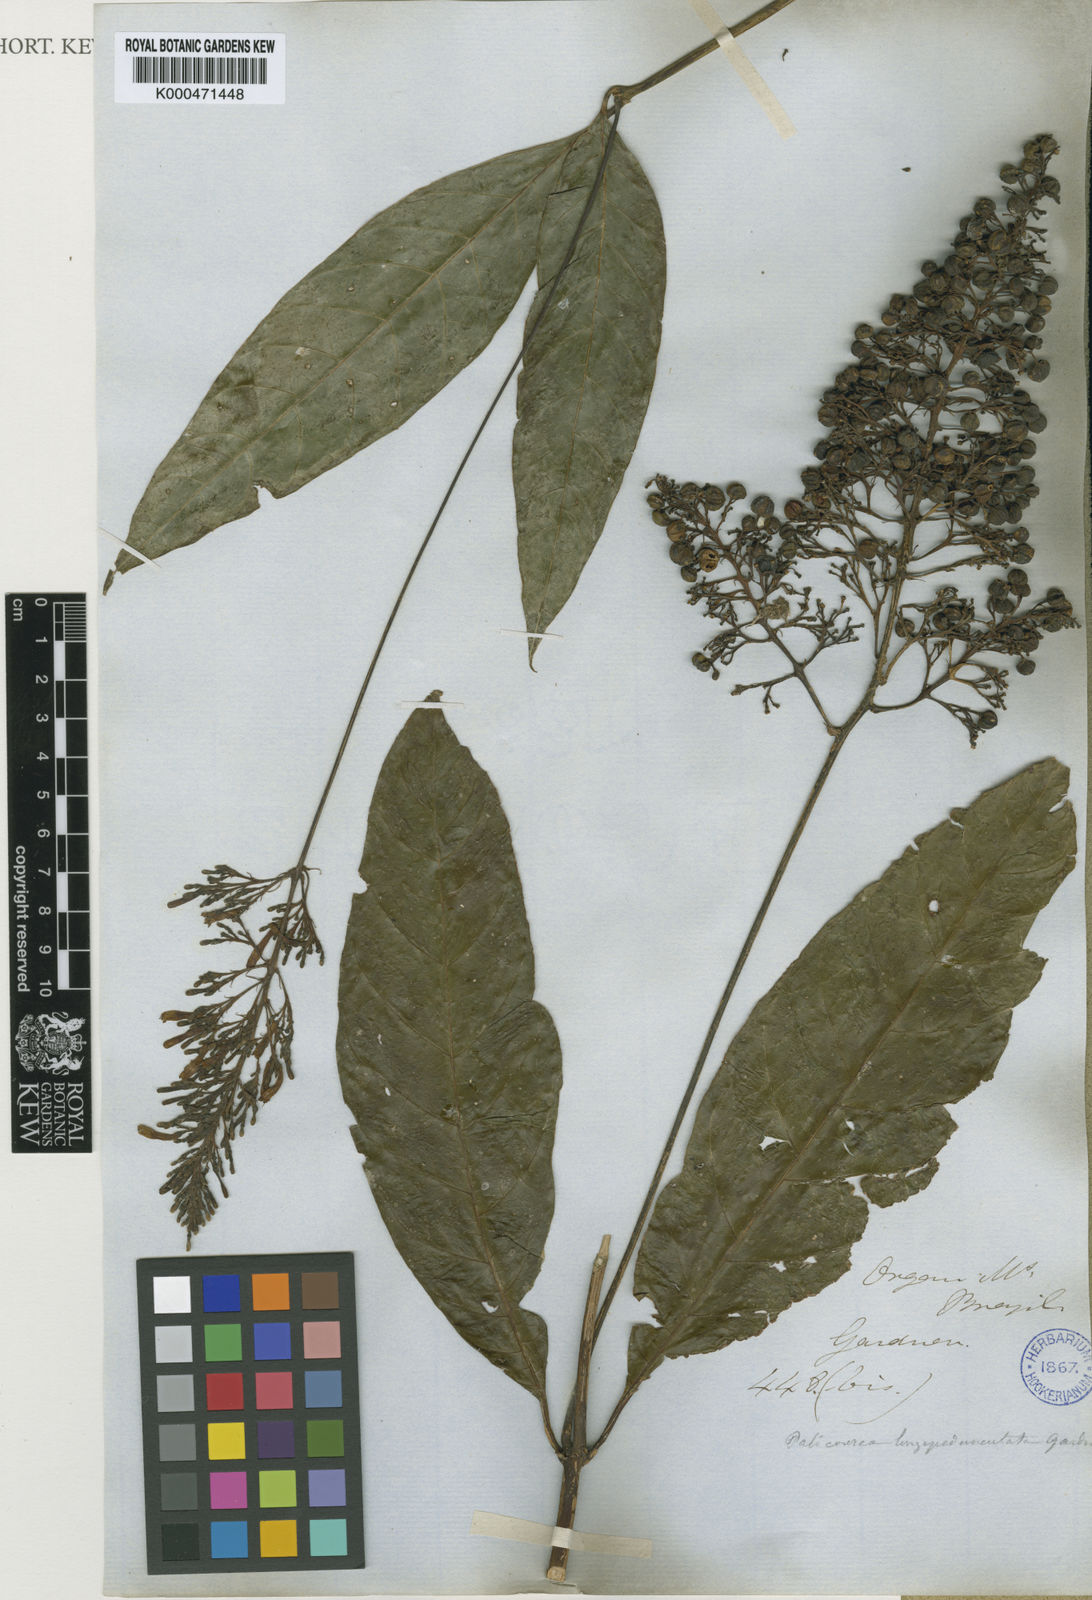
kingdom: Plantae
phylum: Tracheophyta
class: Magnoliopsida
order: Gentianales
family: Rubiaceae
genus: Palicourea
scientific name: Palicourea longipedunculata
